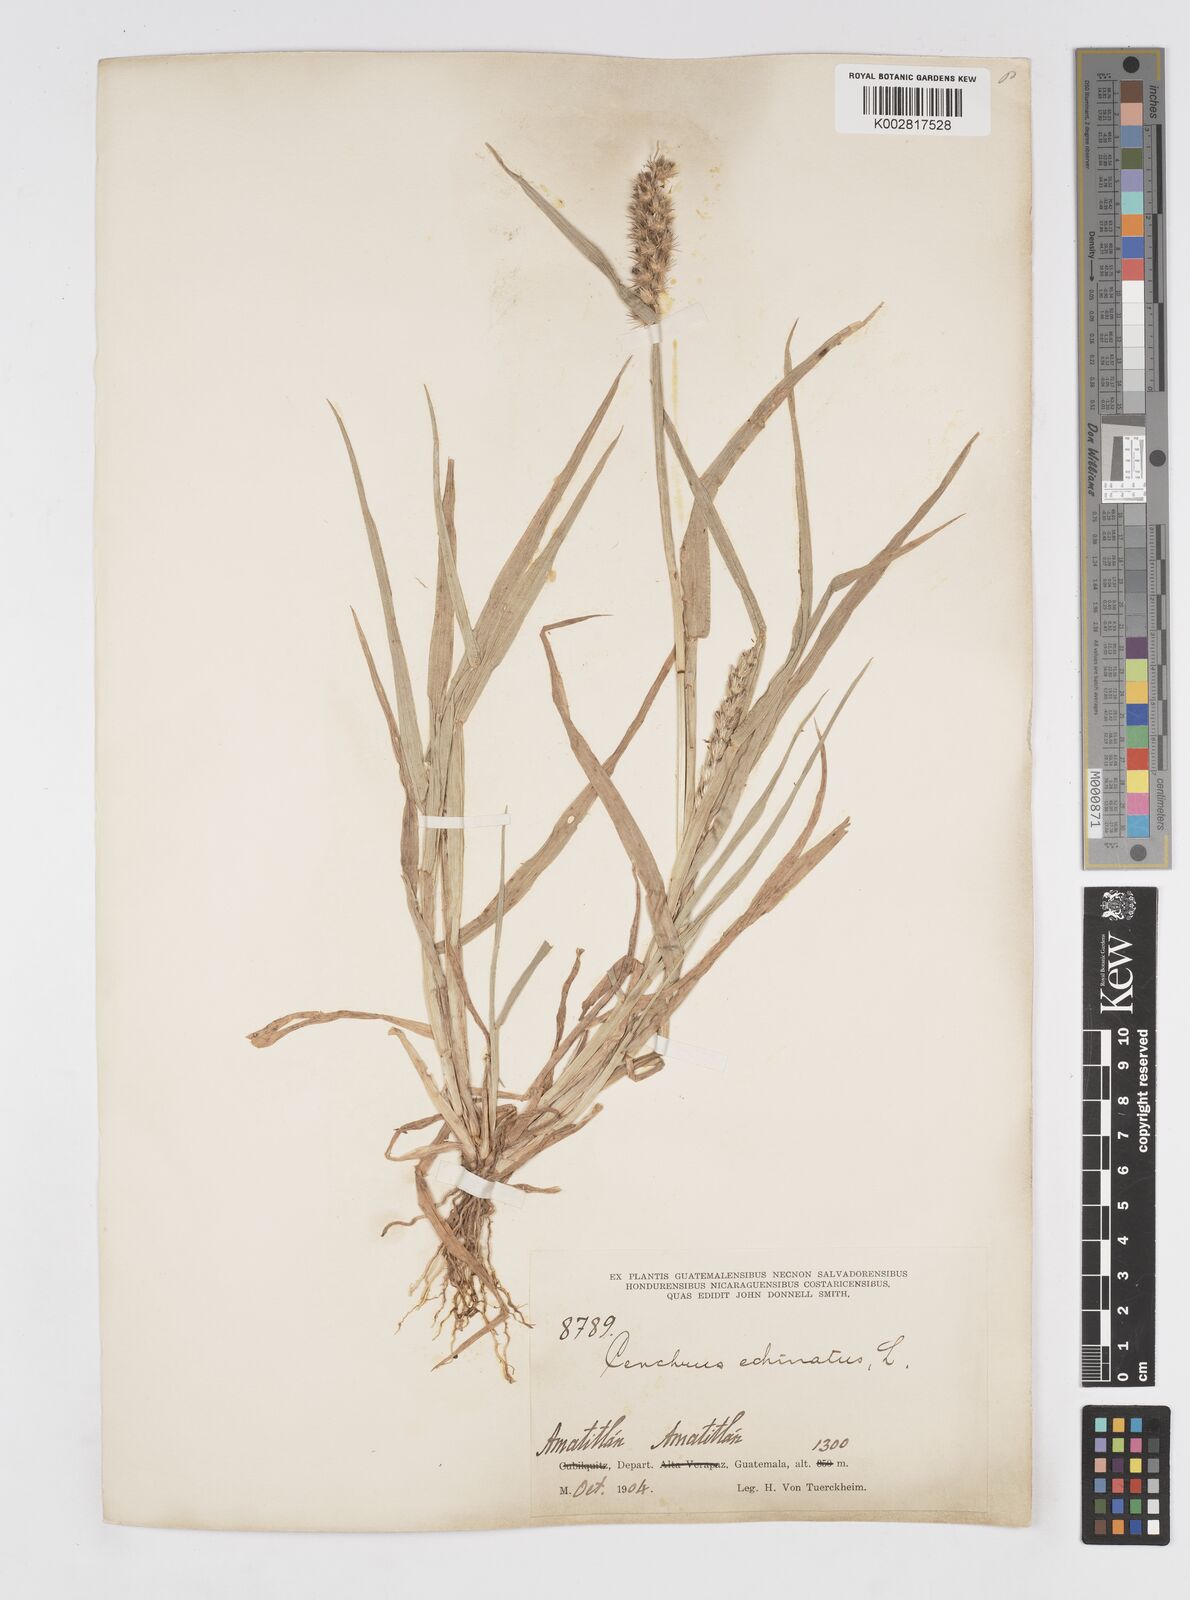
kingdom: Plantae
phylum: Tracheophyta
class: Liliopsida
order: Poales
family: Poaceae
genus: Cenchrus
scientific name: Cenchrus
